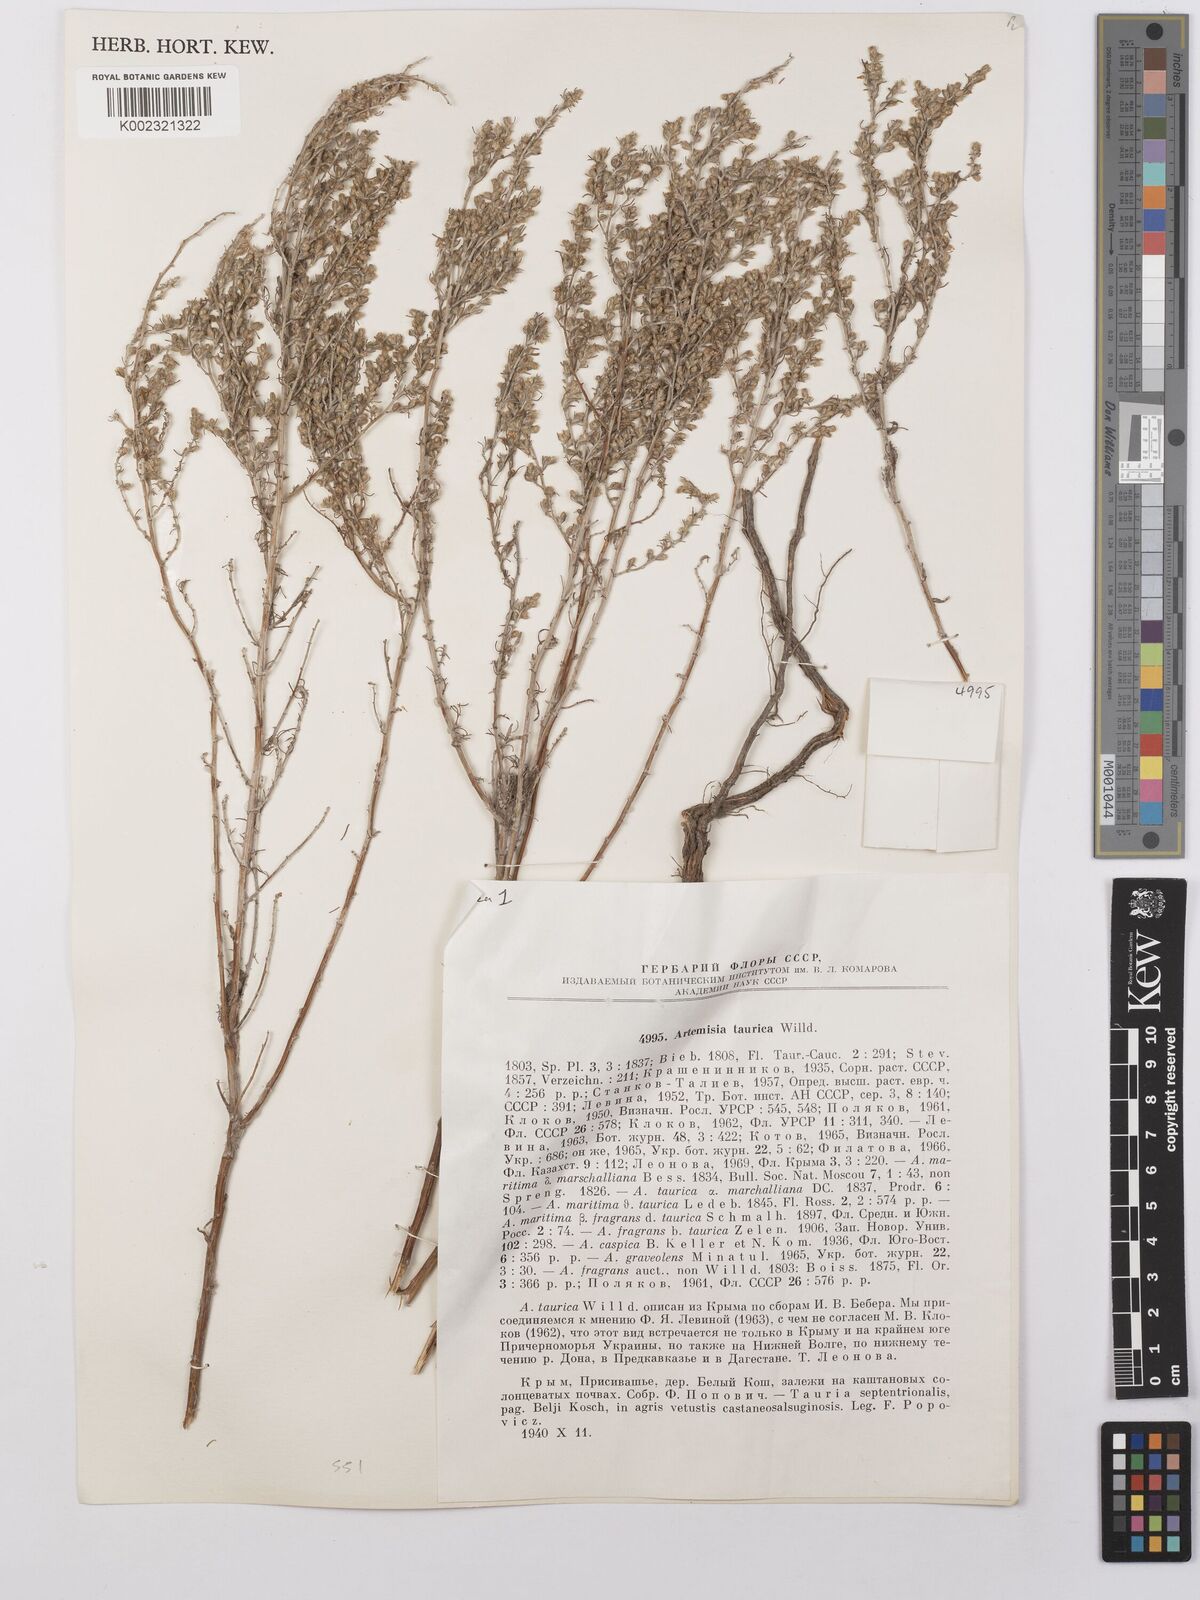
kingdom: Plantae
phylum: Tracheophyta
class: Magnoliopsida
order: Asterales
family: Asteraceae
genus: Artemisia
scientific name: Artemisia taurica
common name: Tauric wormwood
